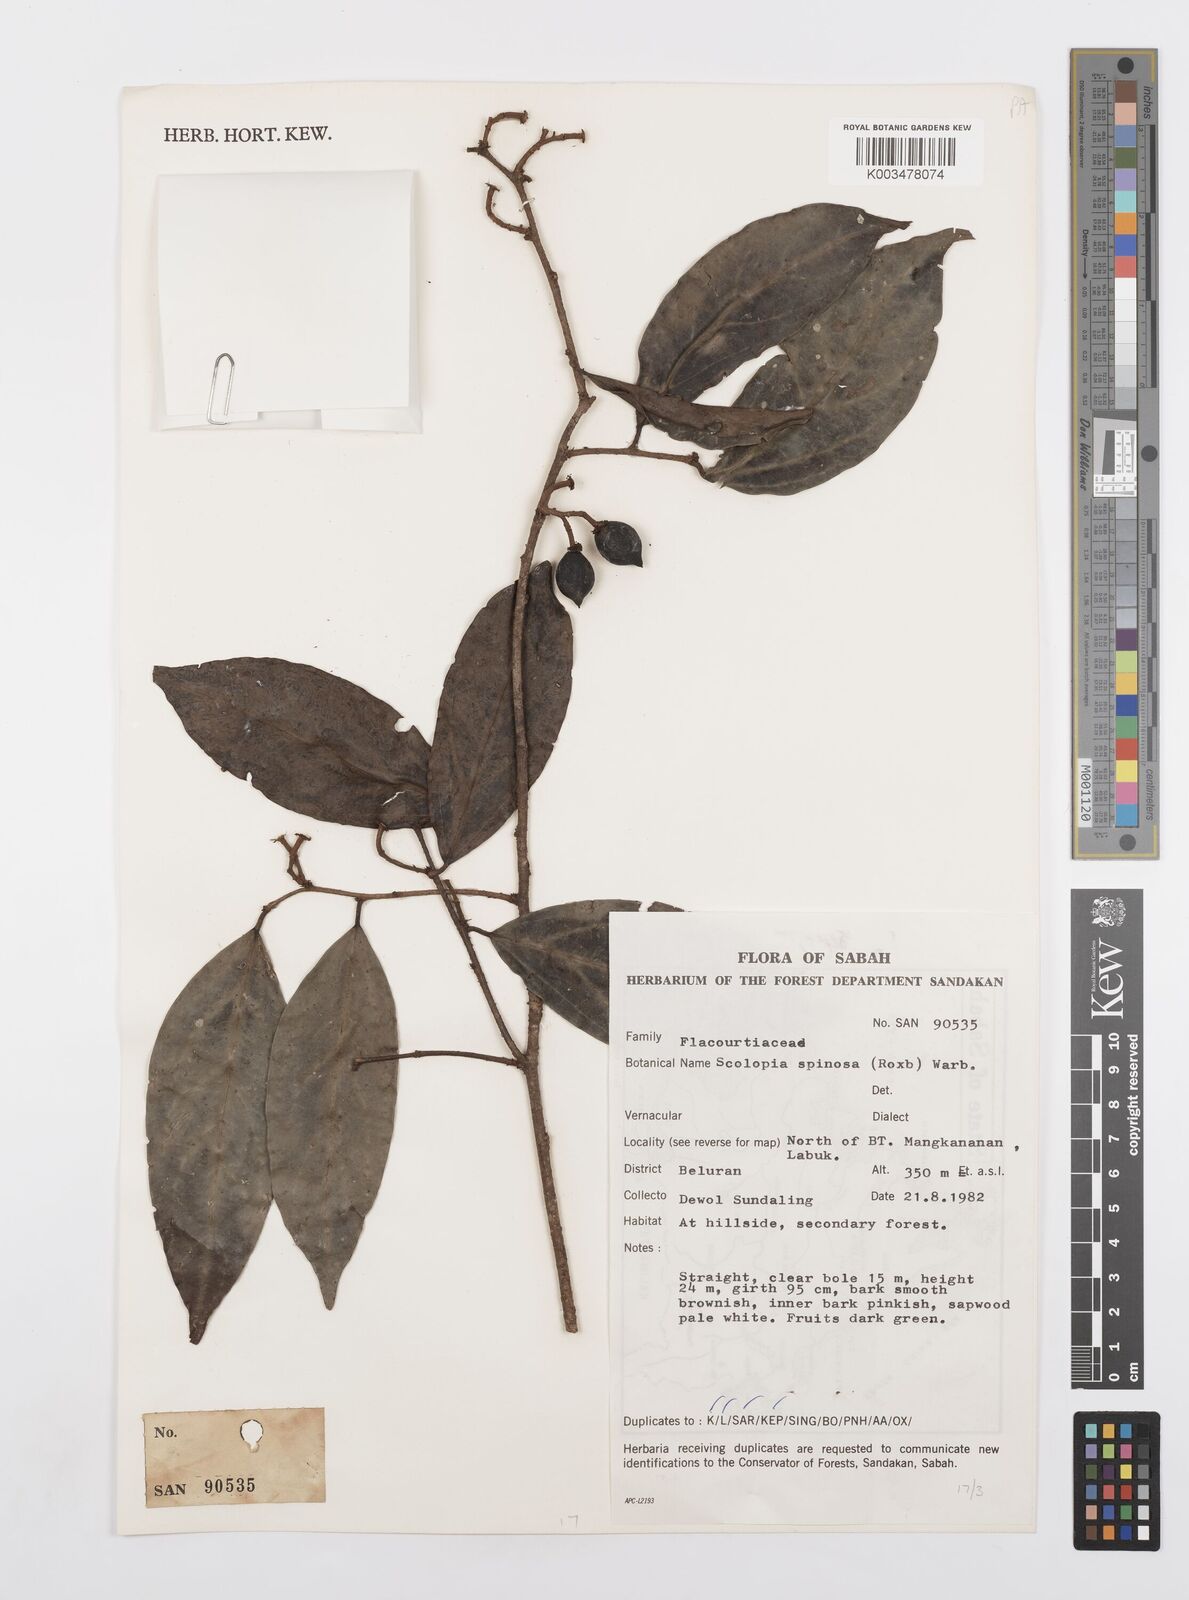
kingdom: Plantae
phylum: Tracheophyta
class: Magnoliopsida
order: Malpighiales
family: Salicaceae
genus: Scolopia
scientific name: Scolopia spinosa
